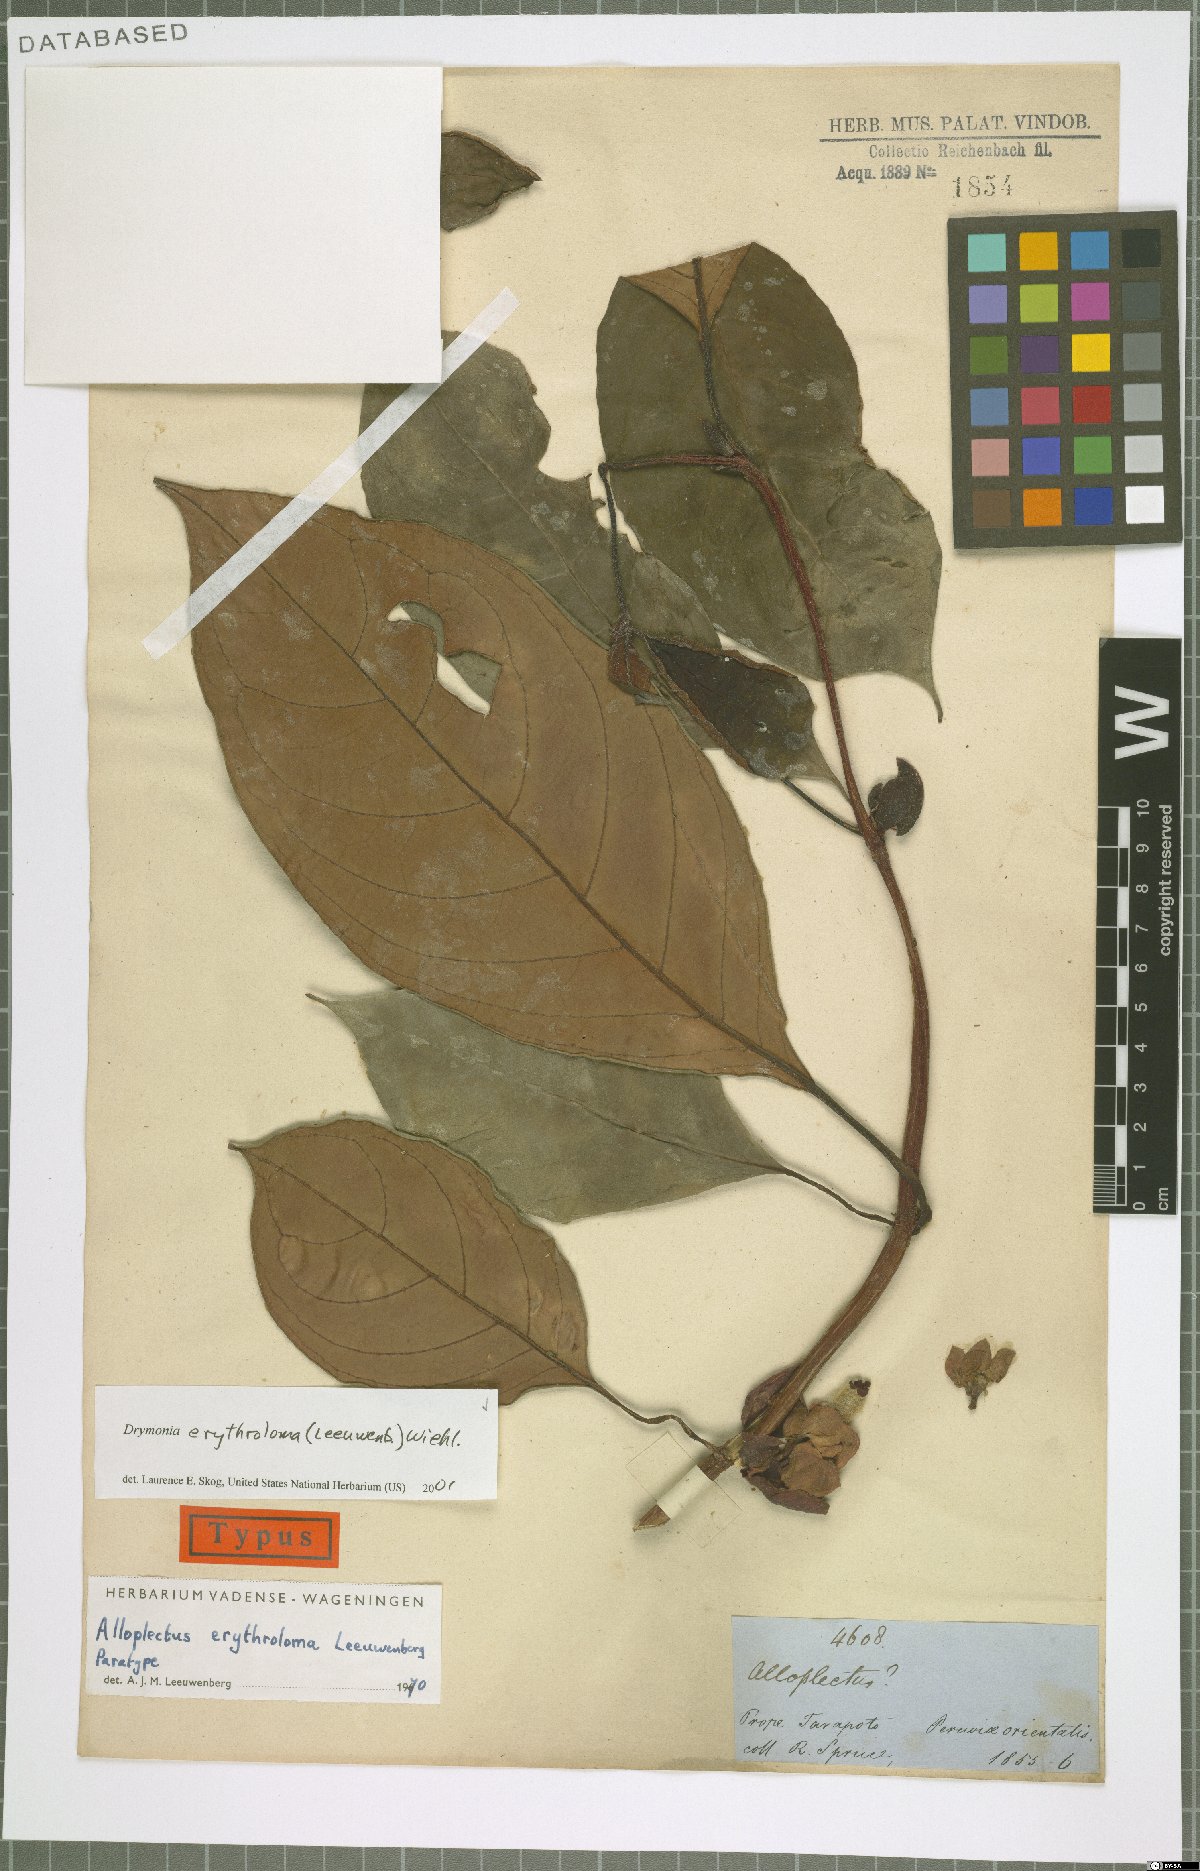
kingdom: Plantae
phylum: Tracheophyta
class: Magnoliopsida
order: Lamiales
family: Gesneriaceae
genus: Drymonia
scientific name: Drymonia erythroloma
